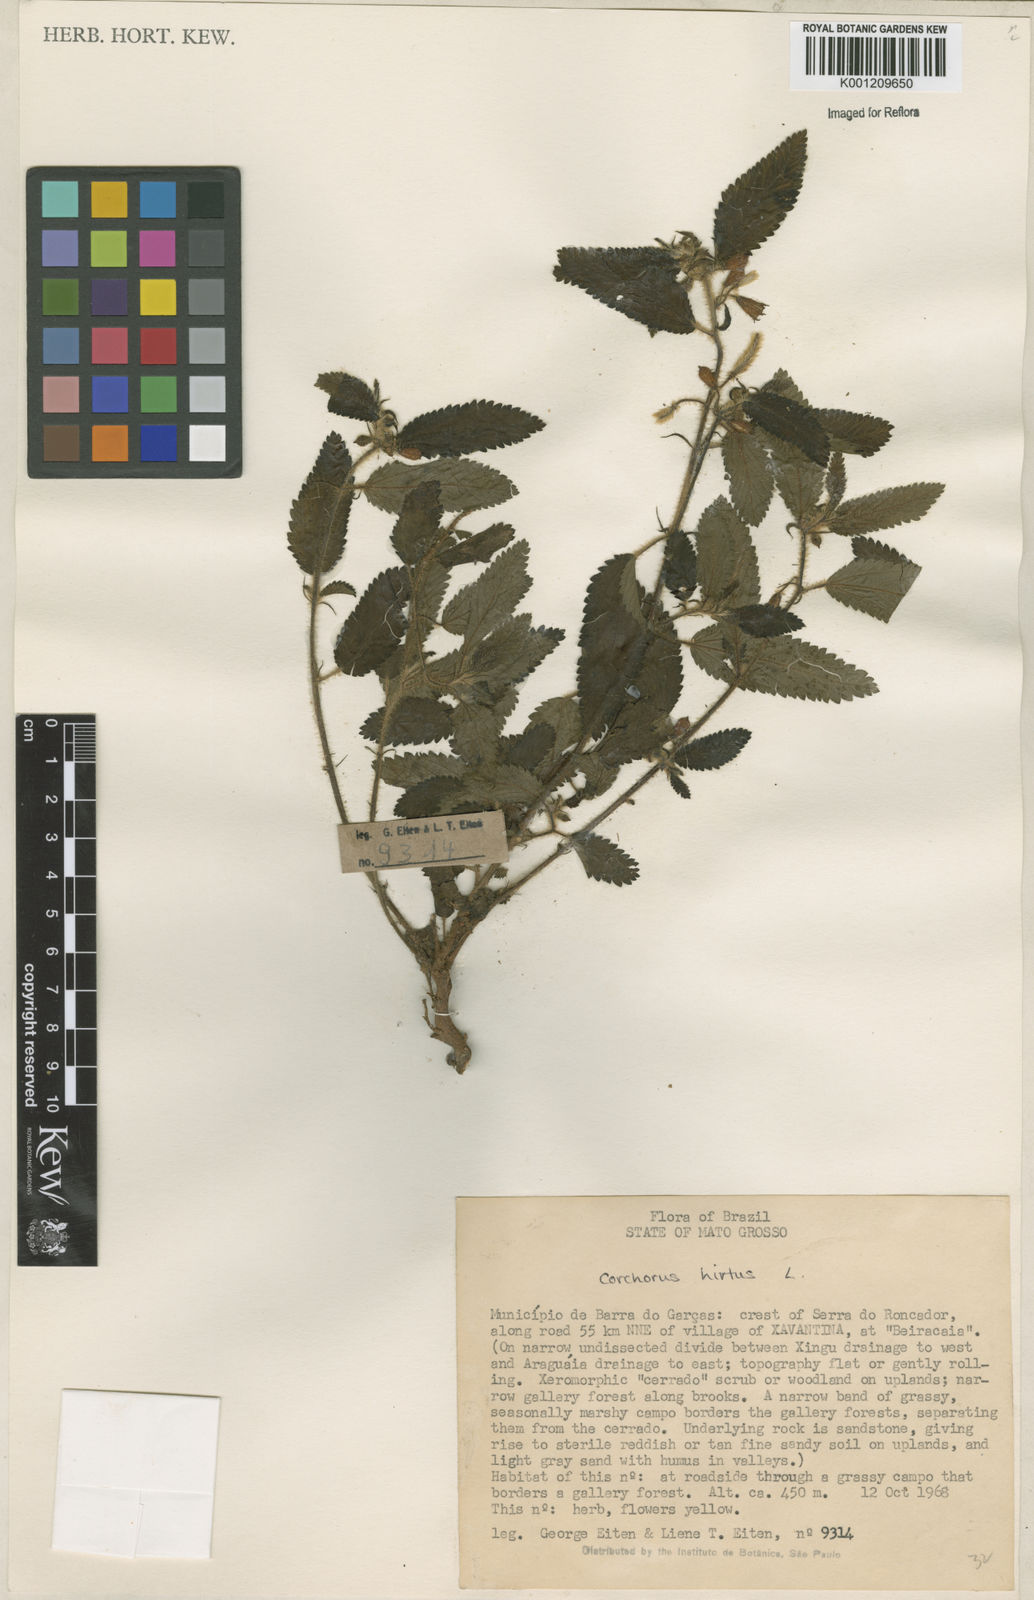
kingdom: Plantae
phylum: Tracheophyta
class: Magnoliopsida
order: Malvales
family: Malvaceae
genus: Corchorus
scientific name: Corchorus hirtus
